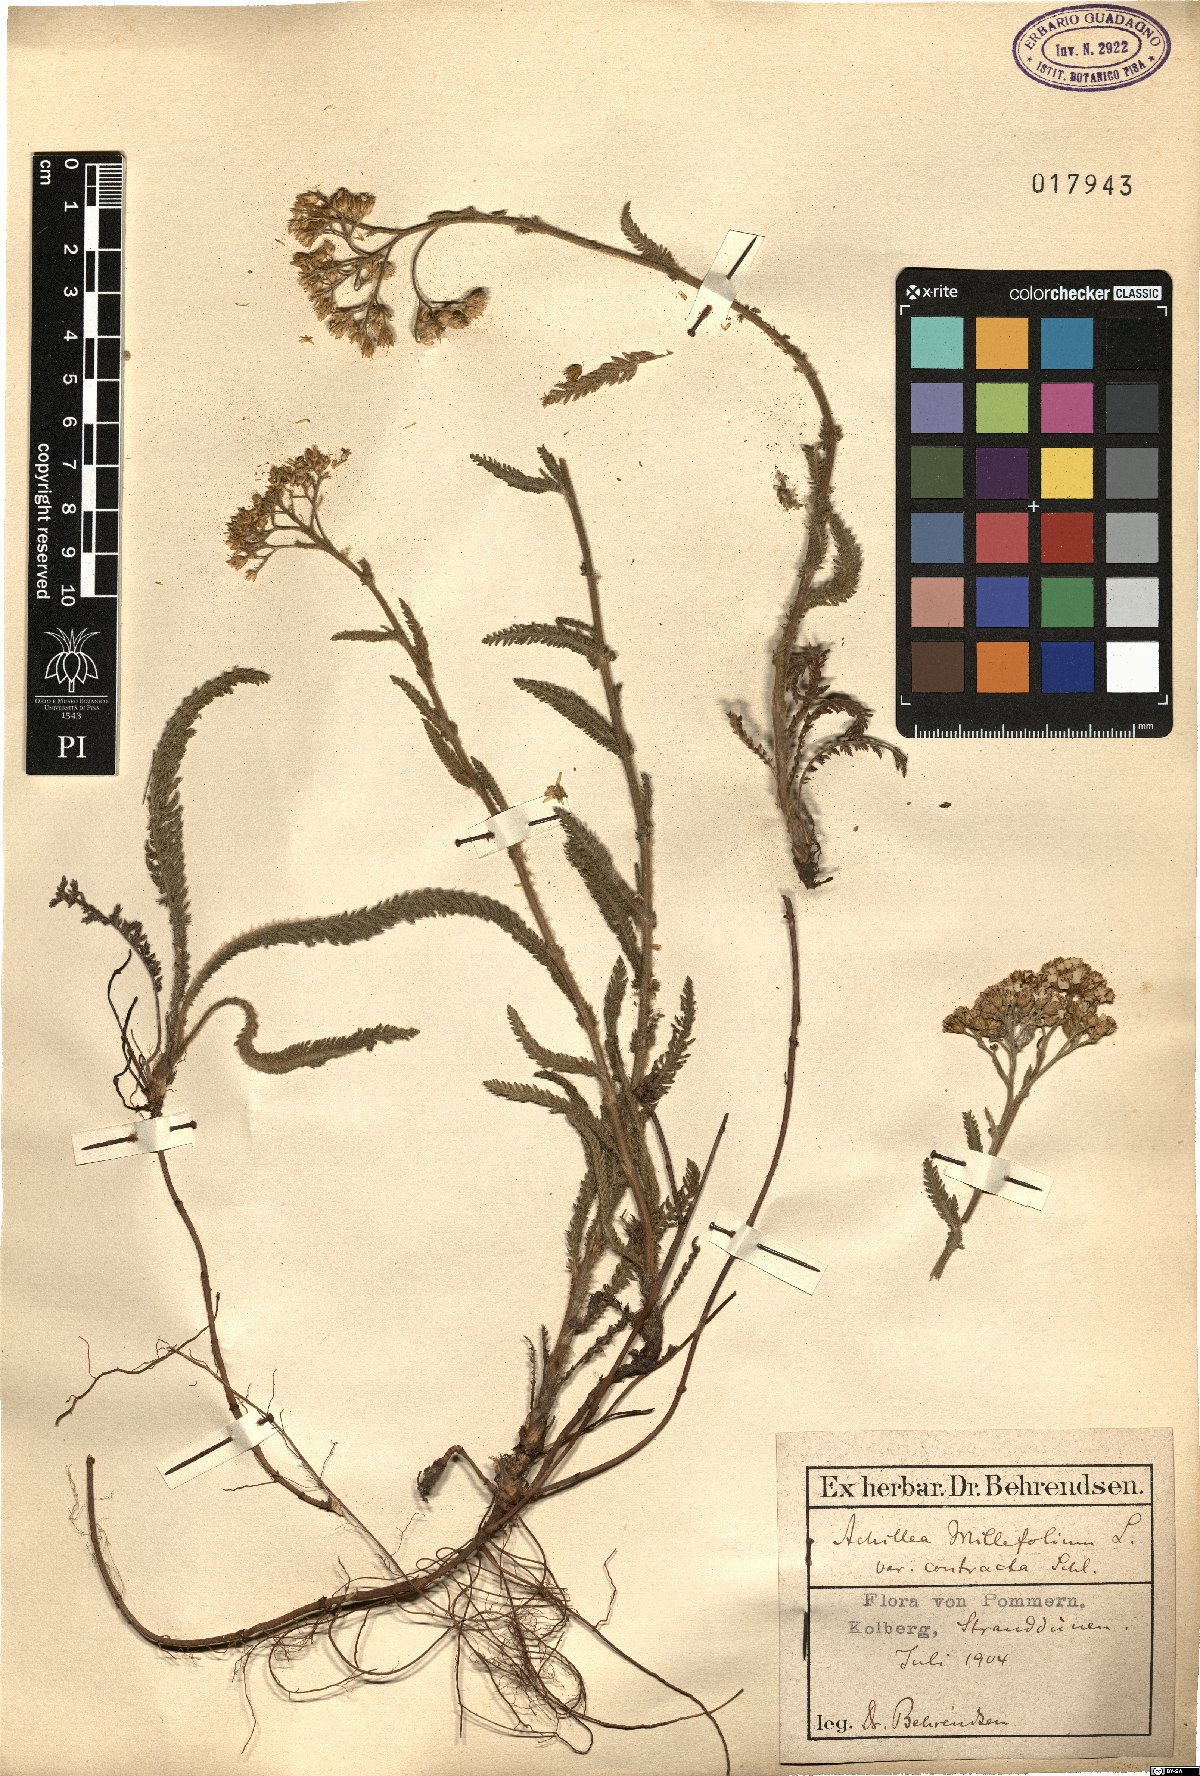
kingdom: Plantae
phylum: Tracheophyta
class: Magnoliopsida
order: Asterales
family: Asteraceae
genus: Achillea
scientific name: Achillea millefolium
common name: Yarrow
